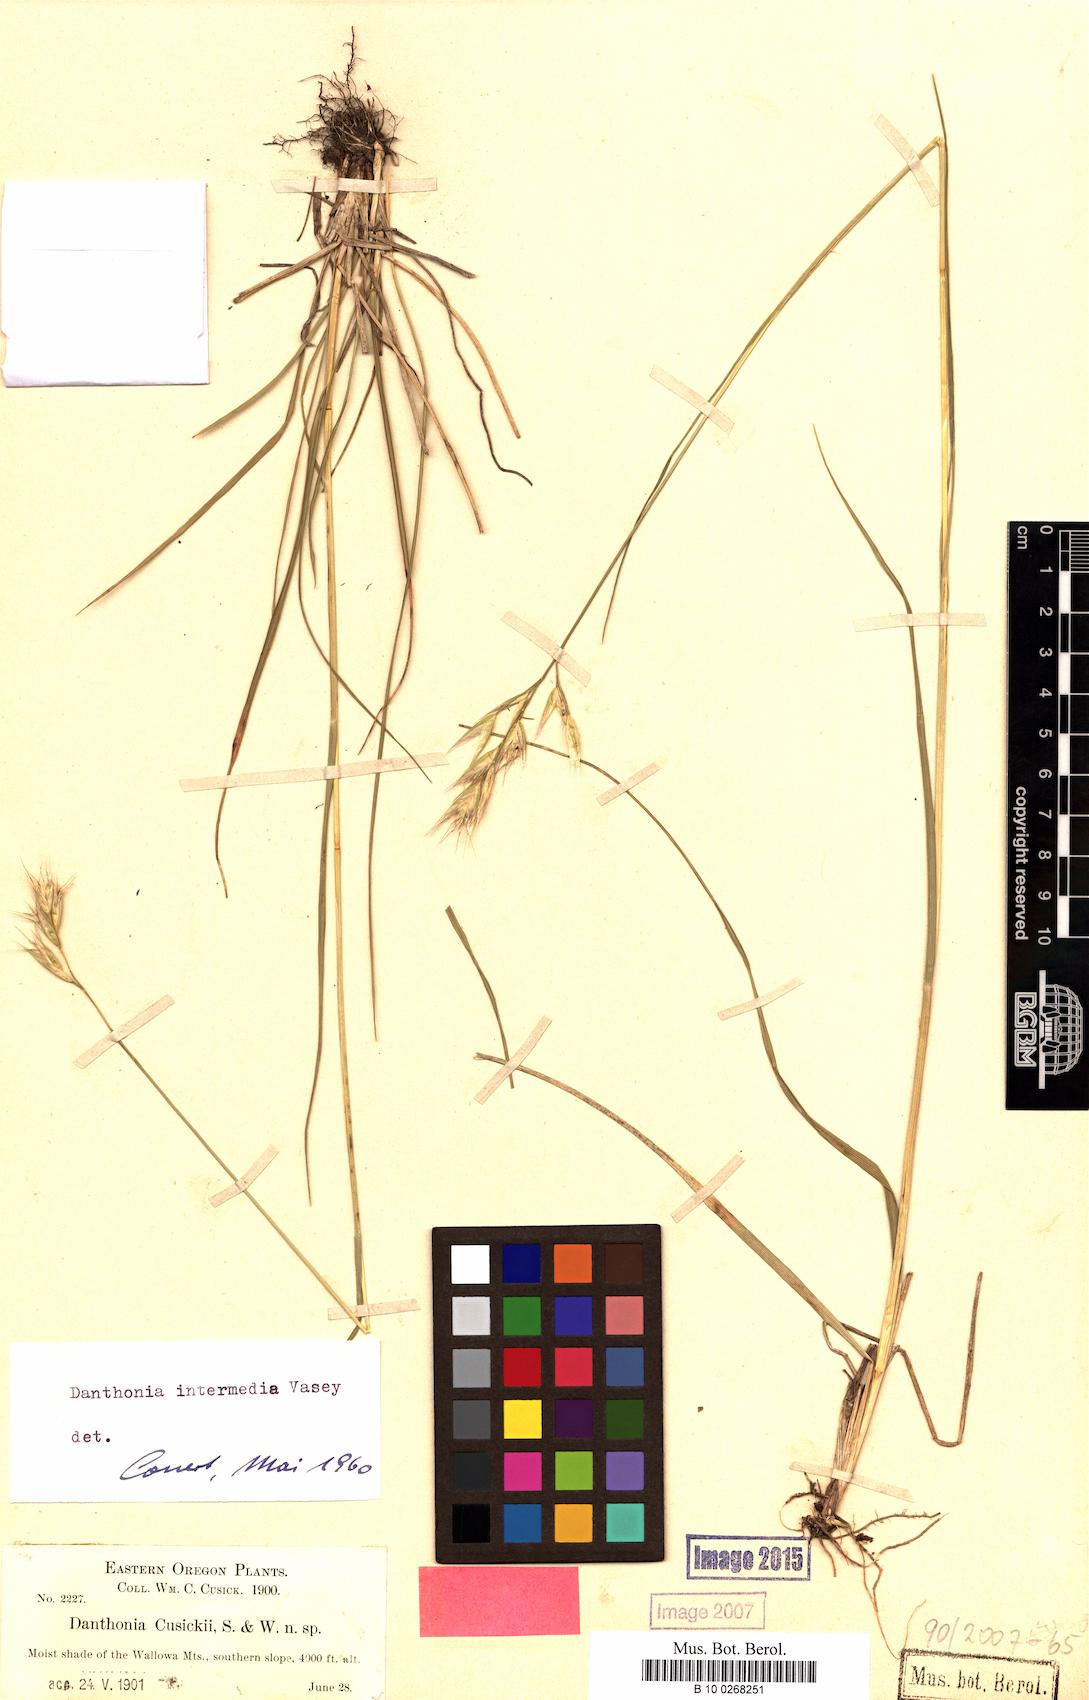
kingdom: Plantae
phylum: Tracheophyta
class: Liliopsida
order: Poales
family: Poaceae
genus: Danthonia
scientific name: Danthonia intermedia
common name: Intermediate oat grass
